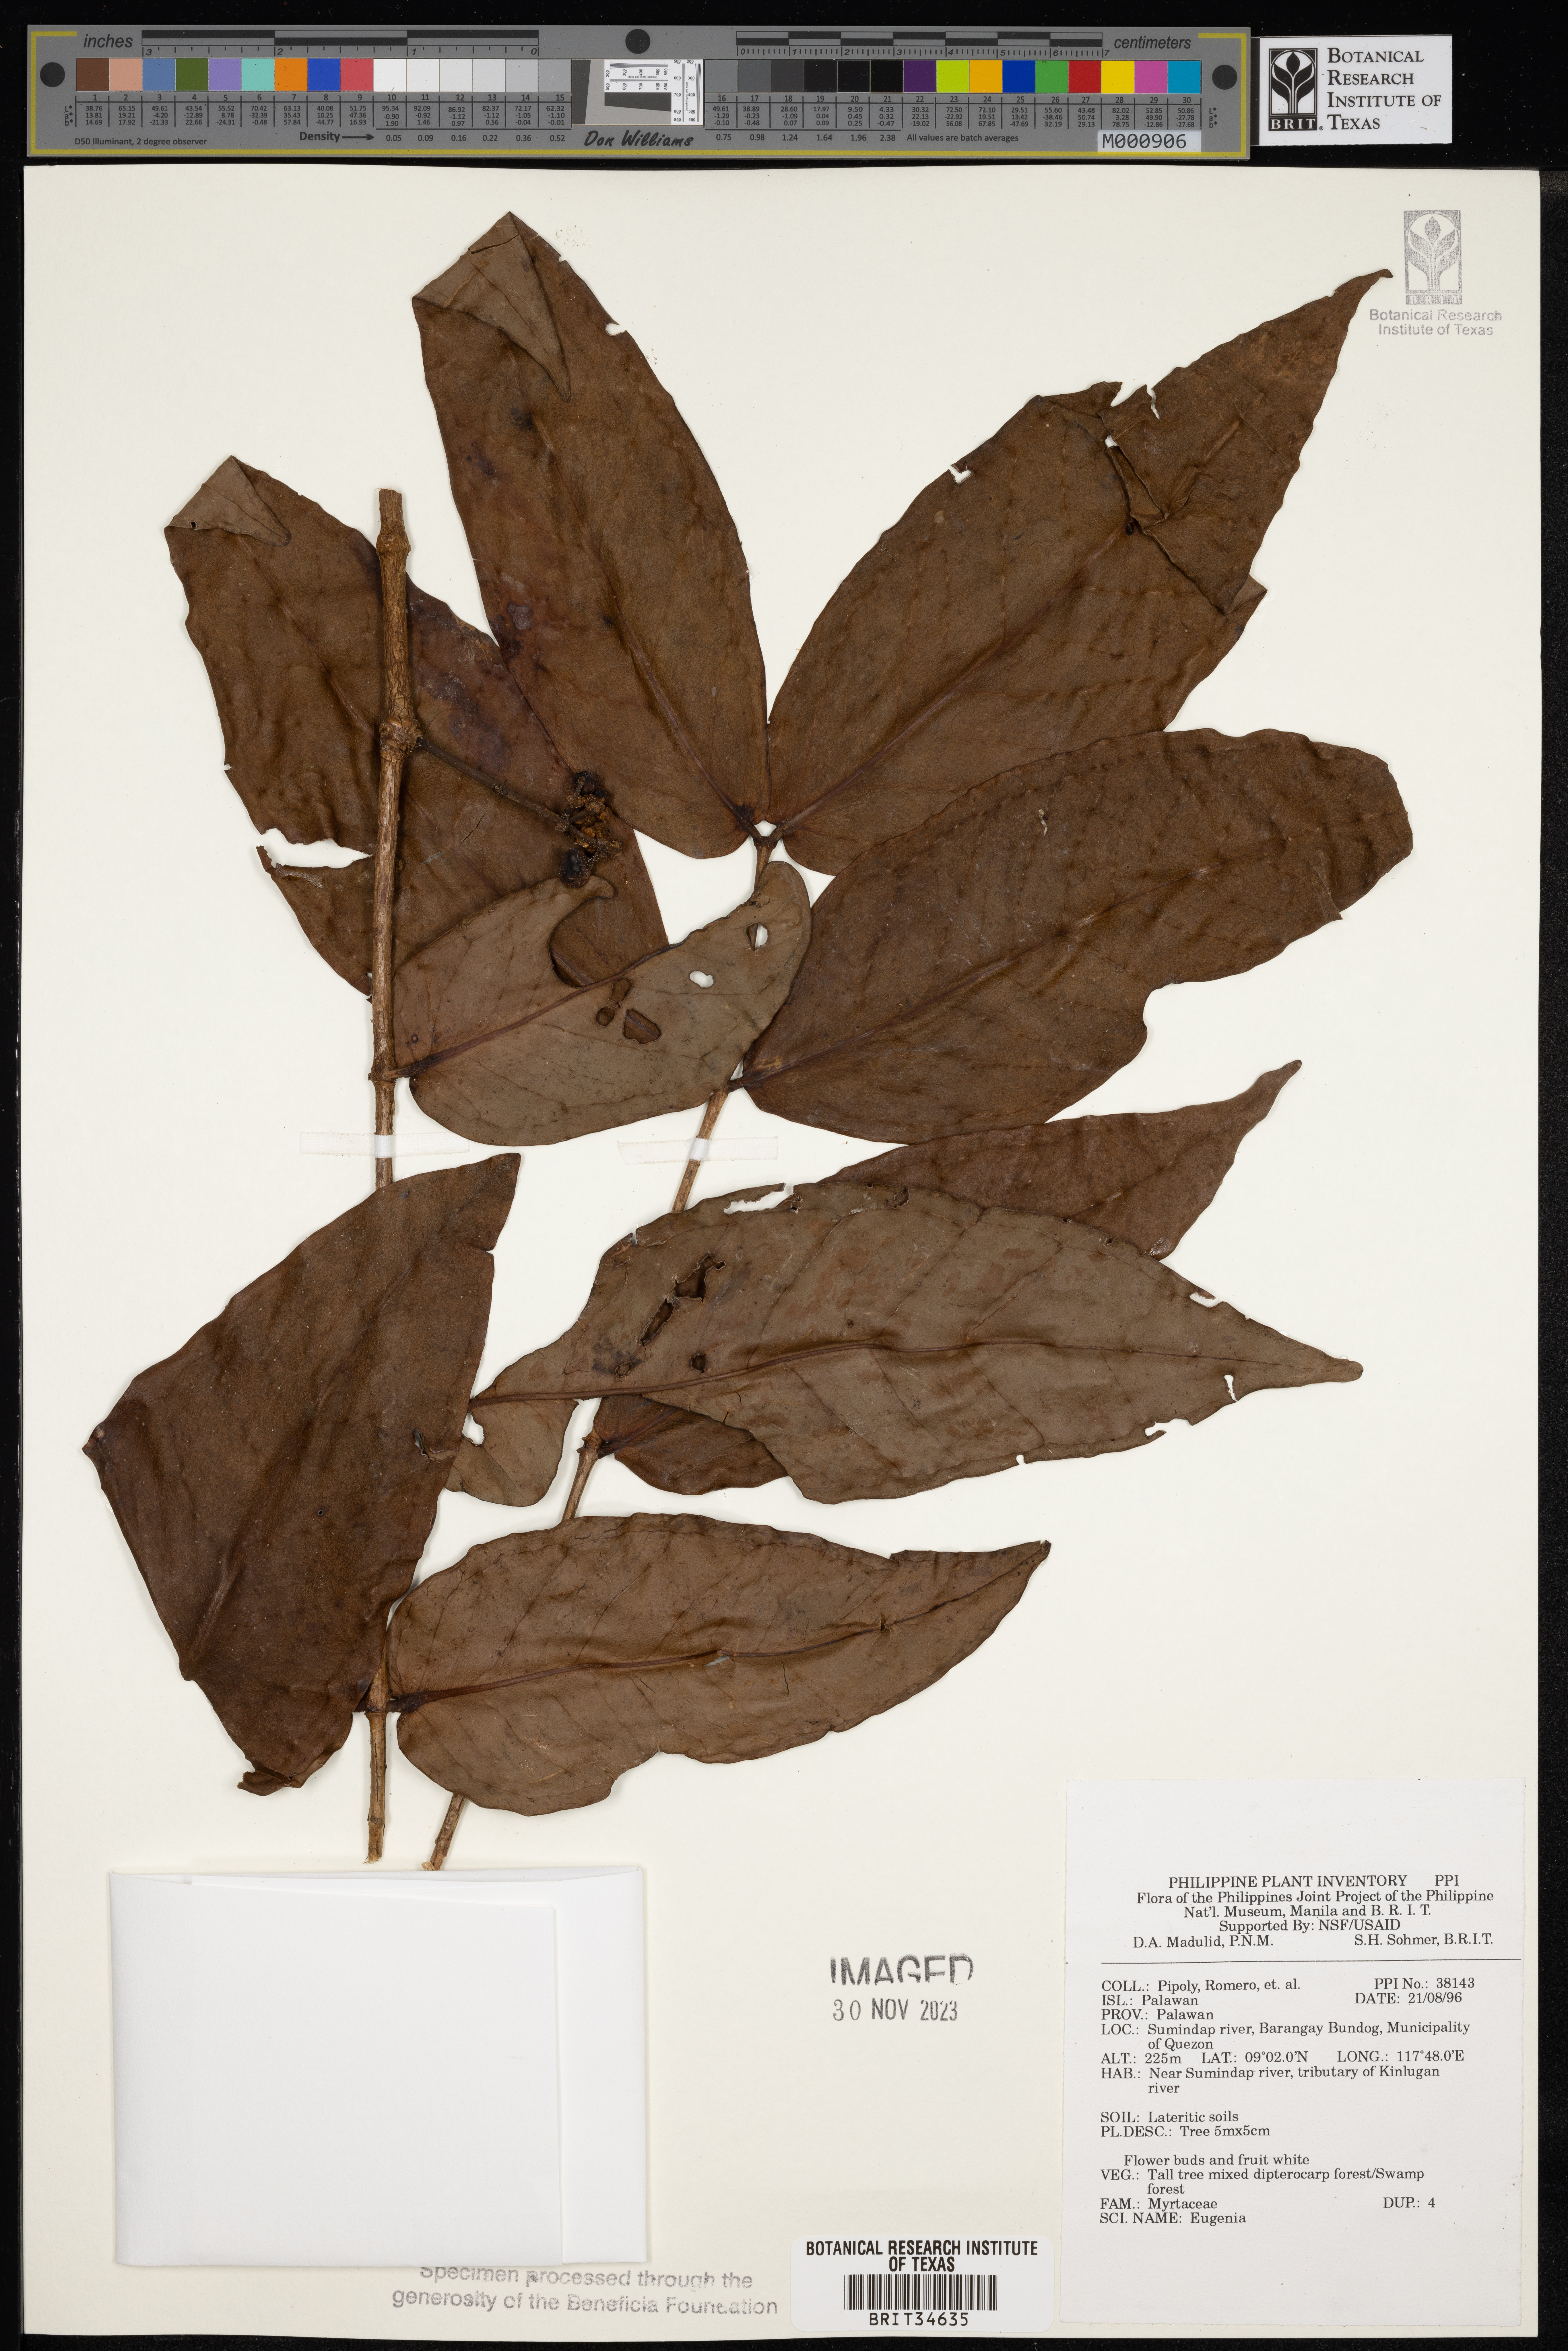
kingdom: Plantae
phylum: Tracheophyta
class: Magnoliopsida
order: Myrtales
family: Myrtaceae
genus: Eugenia
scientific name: Eugenia
